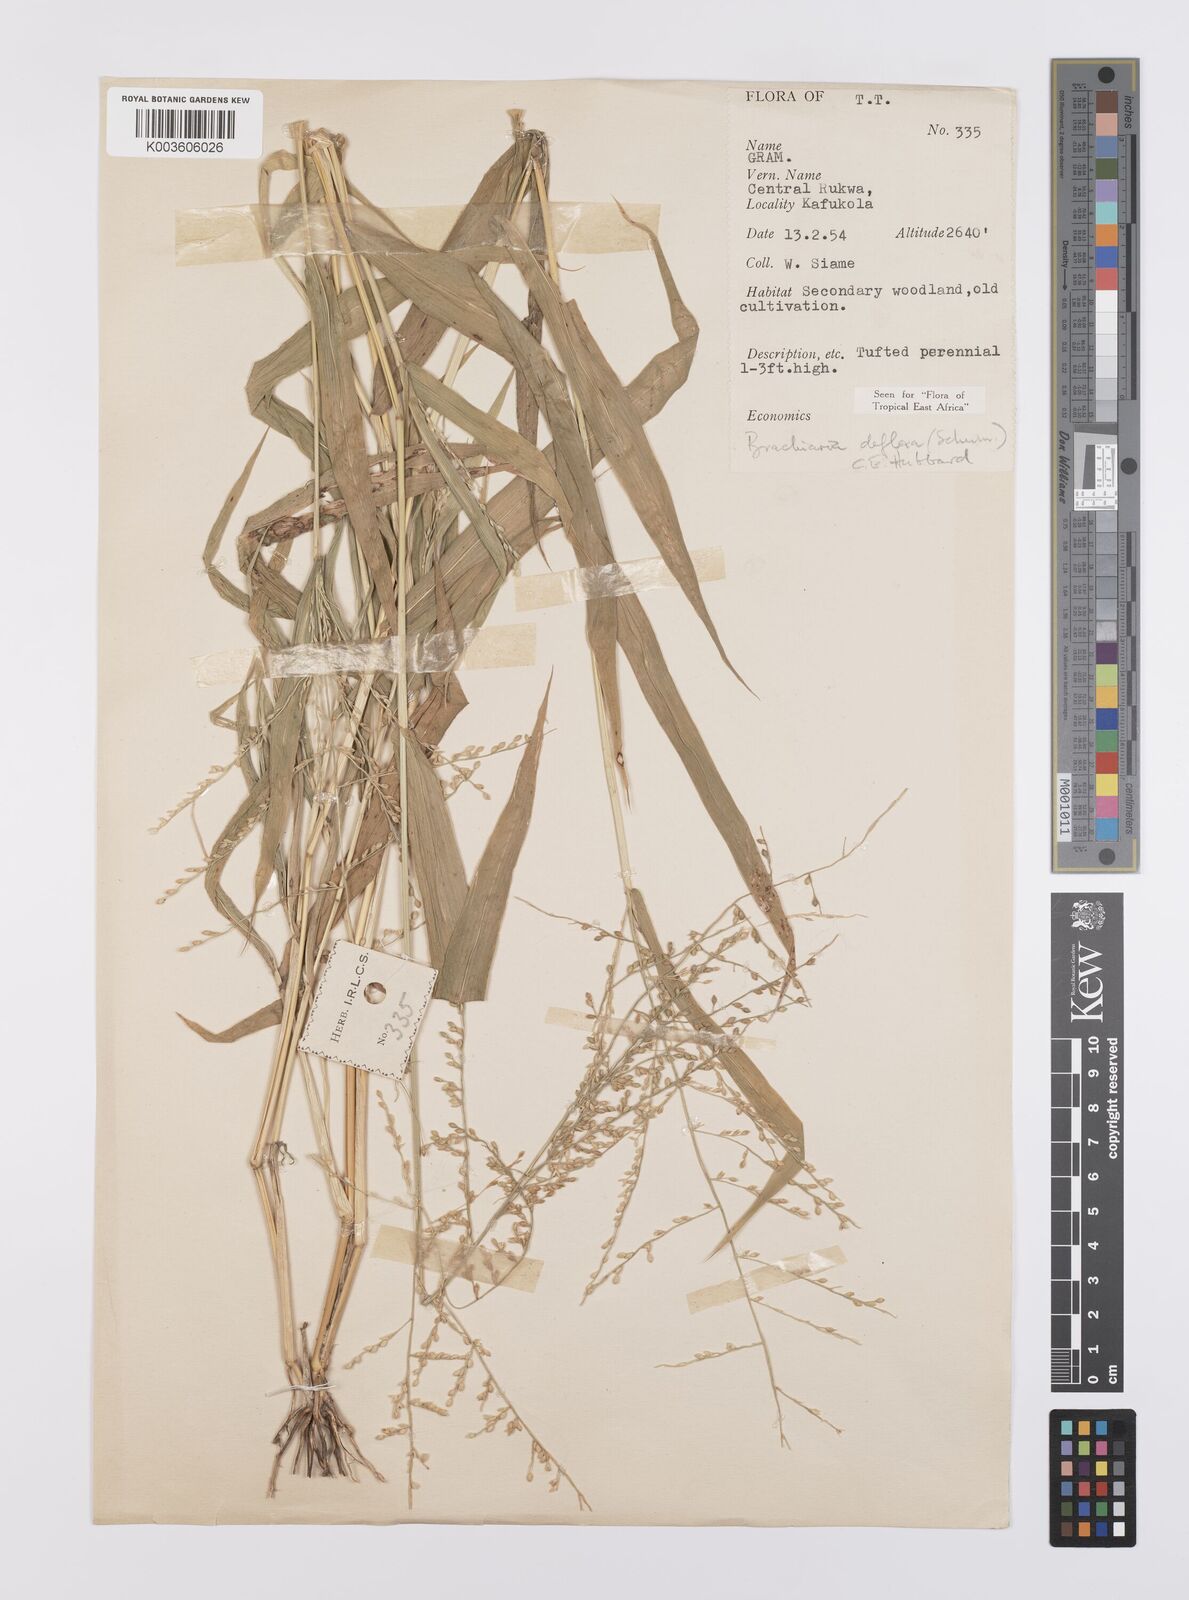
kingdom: Plantae
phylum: Tracheophyta
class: Liliopsida
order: Poales
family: Poaceae
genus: Urochloa
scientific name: Urochloa deflexa
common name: Guinea millet
